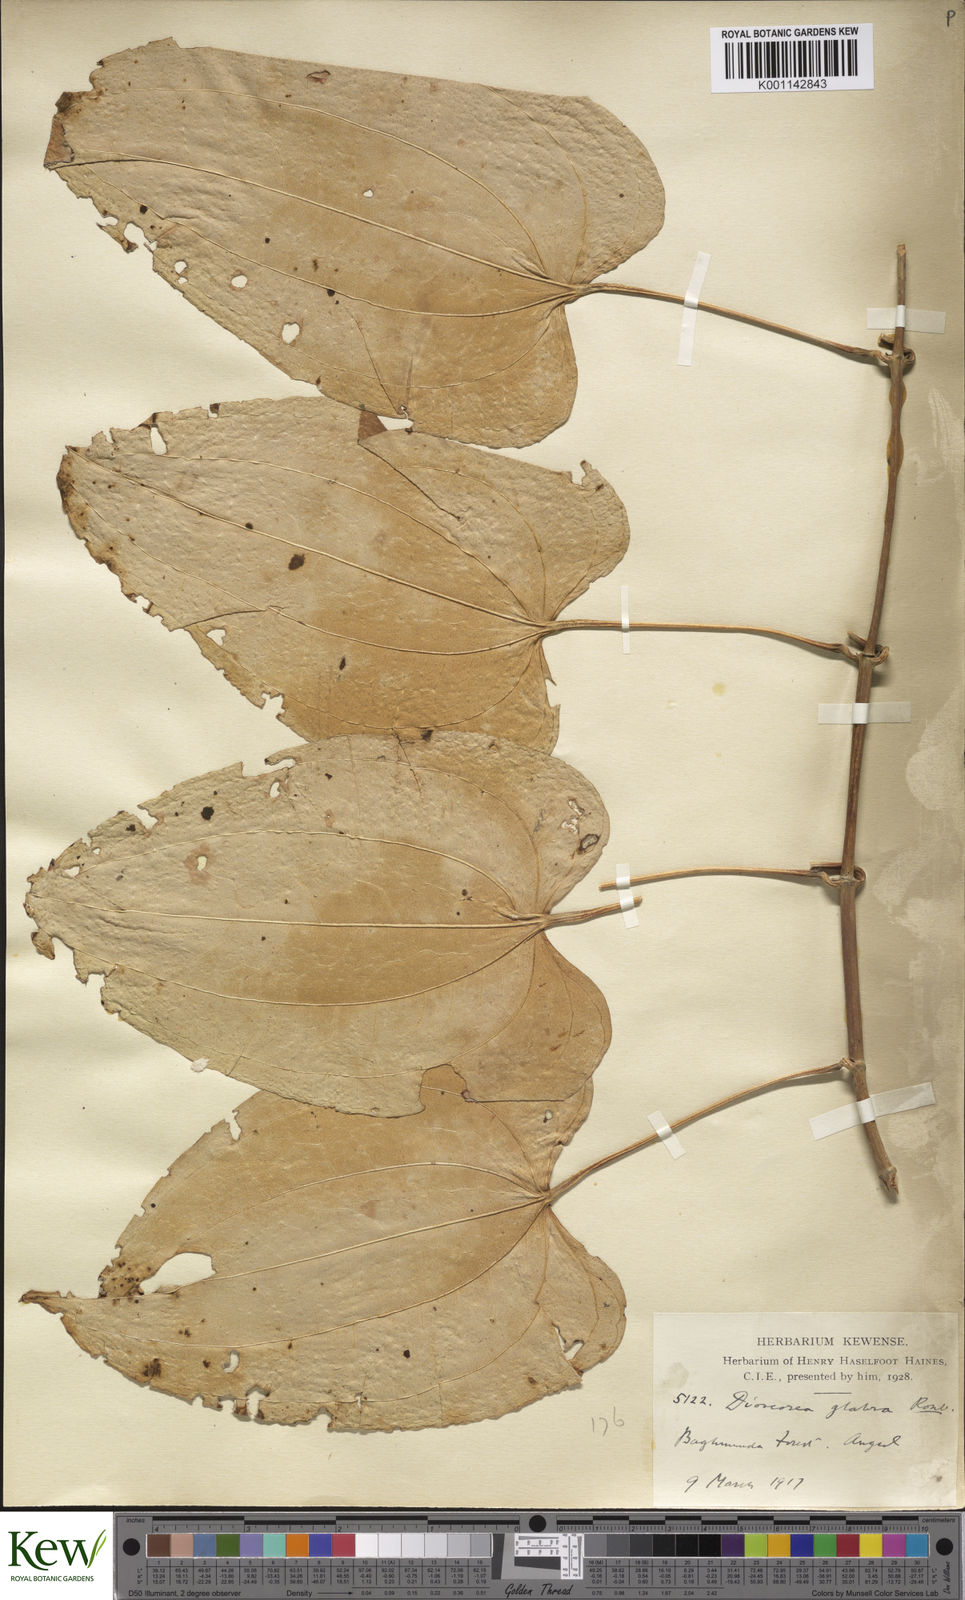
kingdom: Plantae
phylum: Tracheophyta
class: Liliopsida
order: Dioscoreales
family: Dioscoreaceae
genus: Dioscorea
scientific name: Dioscorea glabra
